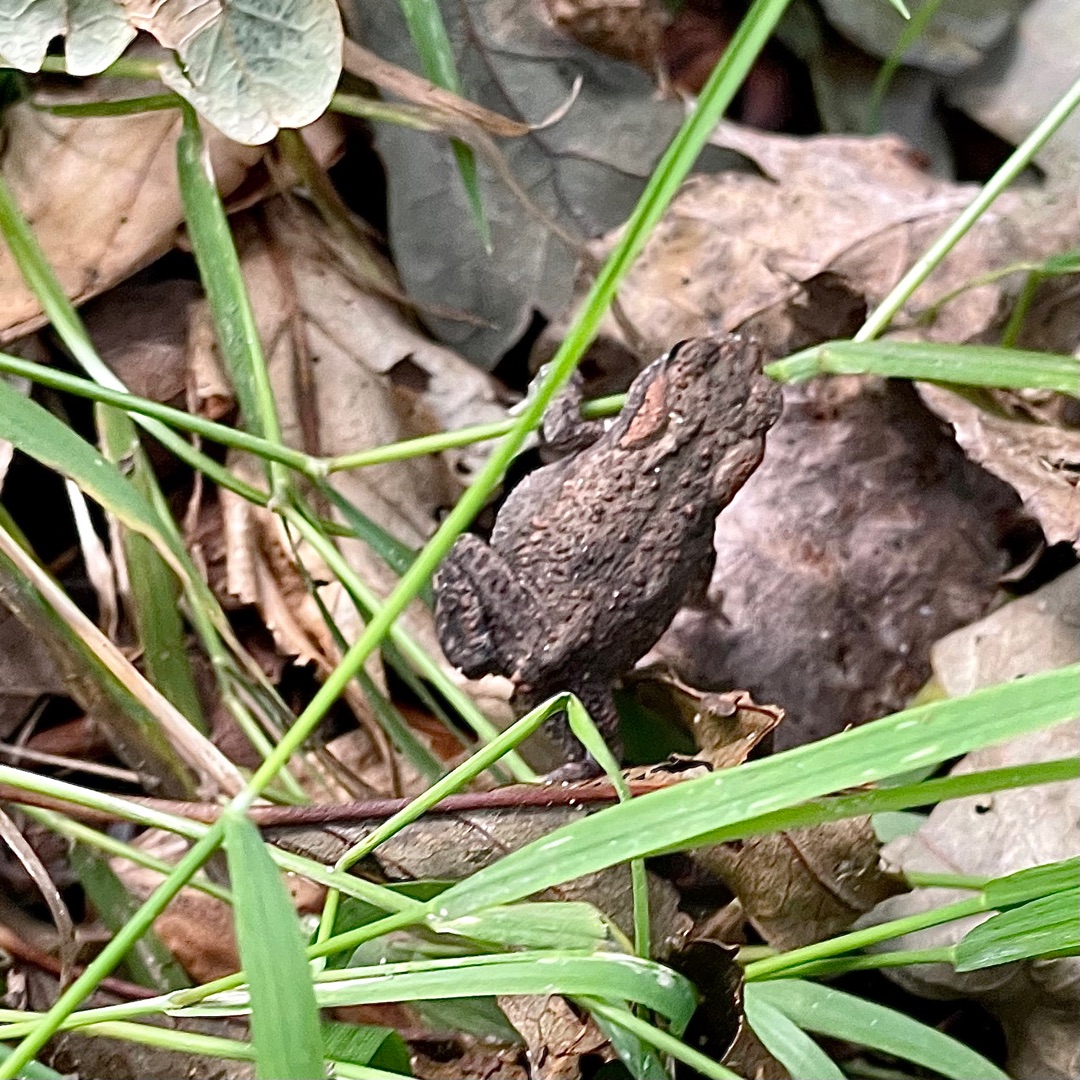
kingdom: Animalia
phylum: Chordata
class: Amphibia
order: Anura
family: Bufonidae
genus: Bufo
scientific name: Bufo bufo
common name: Skrubtudse
